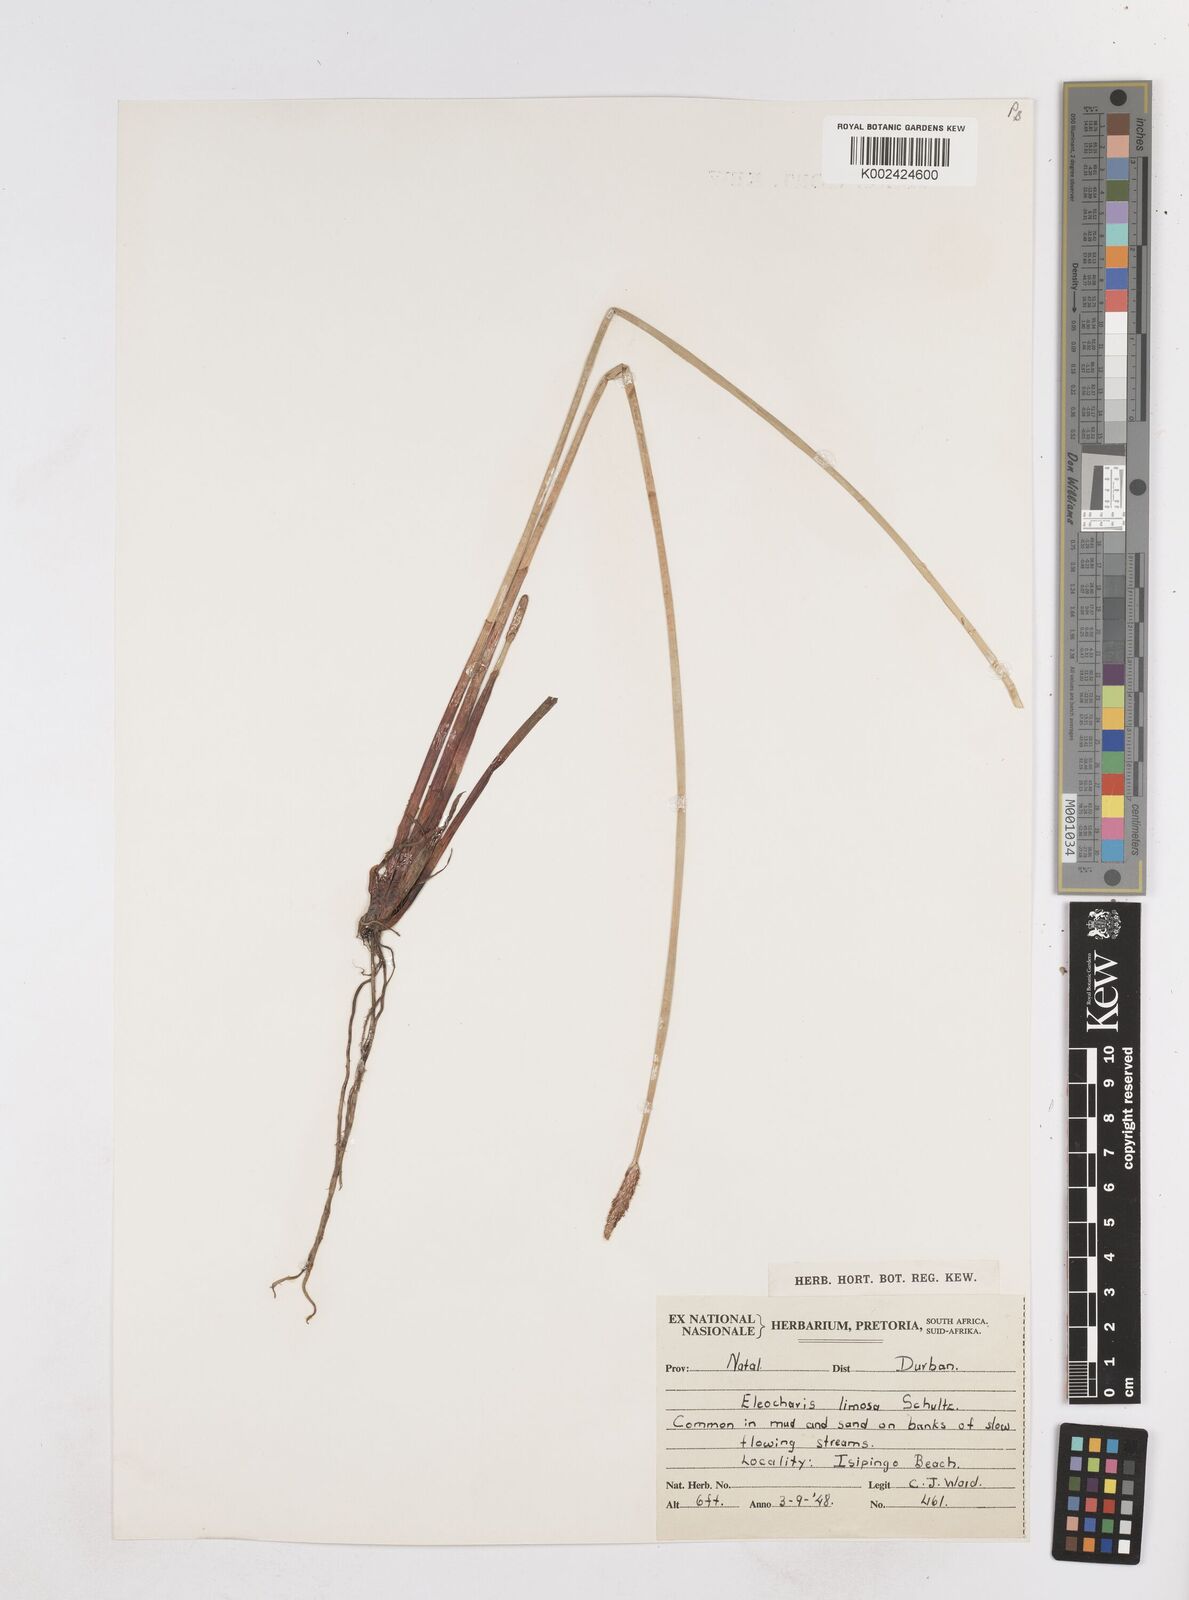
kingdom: Plantae
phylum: Tracheophyta
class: Liliopsida
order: Poales
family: Cyperaceae
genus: Eleocharis
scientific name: Eleocharis limosa
